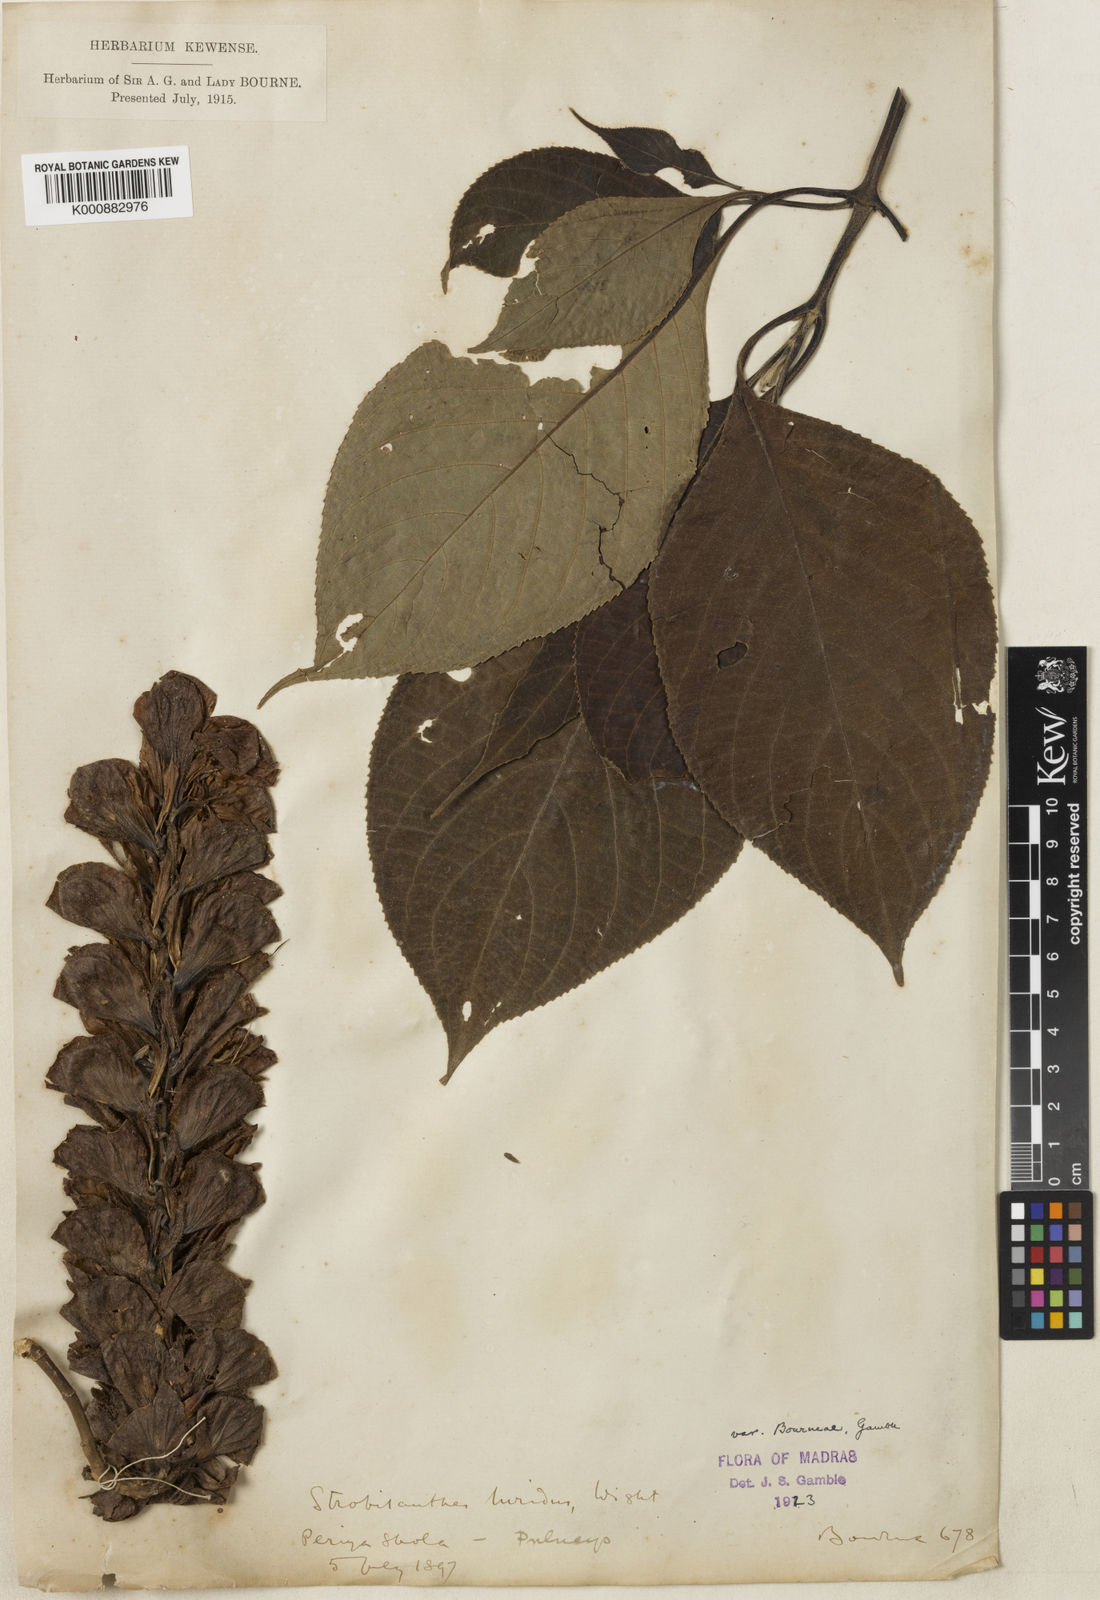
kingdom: Plantae
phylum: Tracheophyta
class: Magnoliopsida
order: Lamiales
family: Acanthaceae
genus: Strobilanthes
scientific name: Strobilanthes lurida
